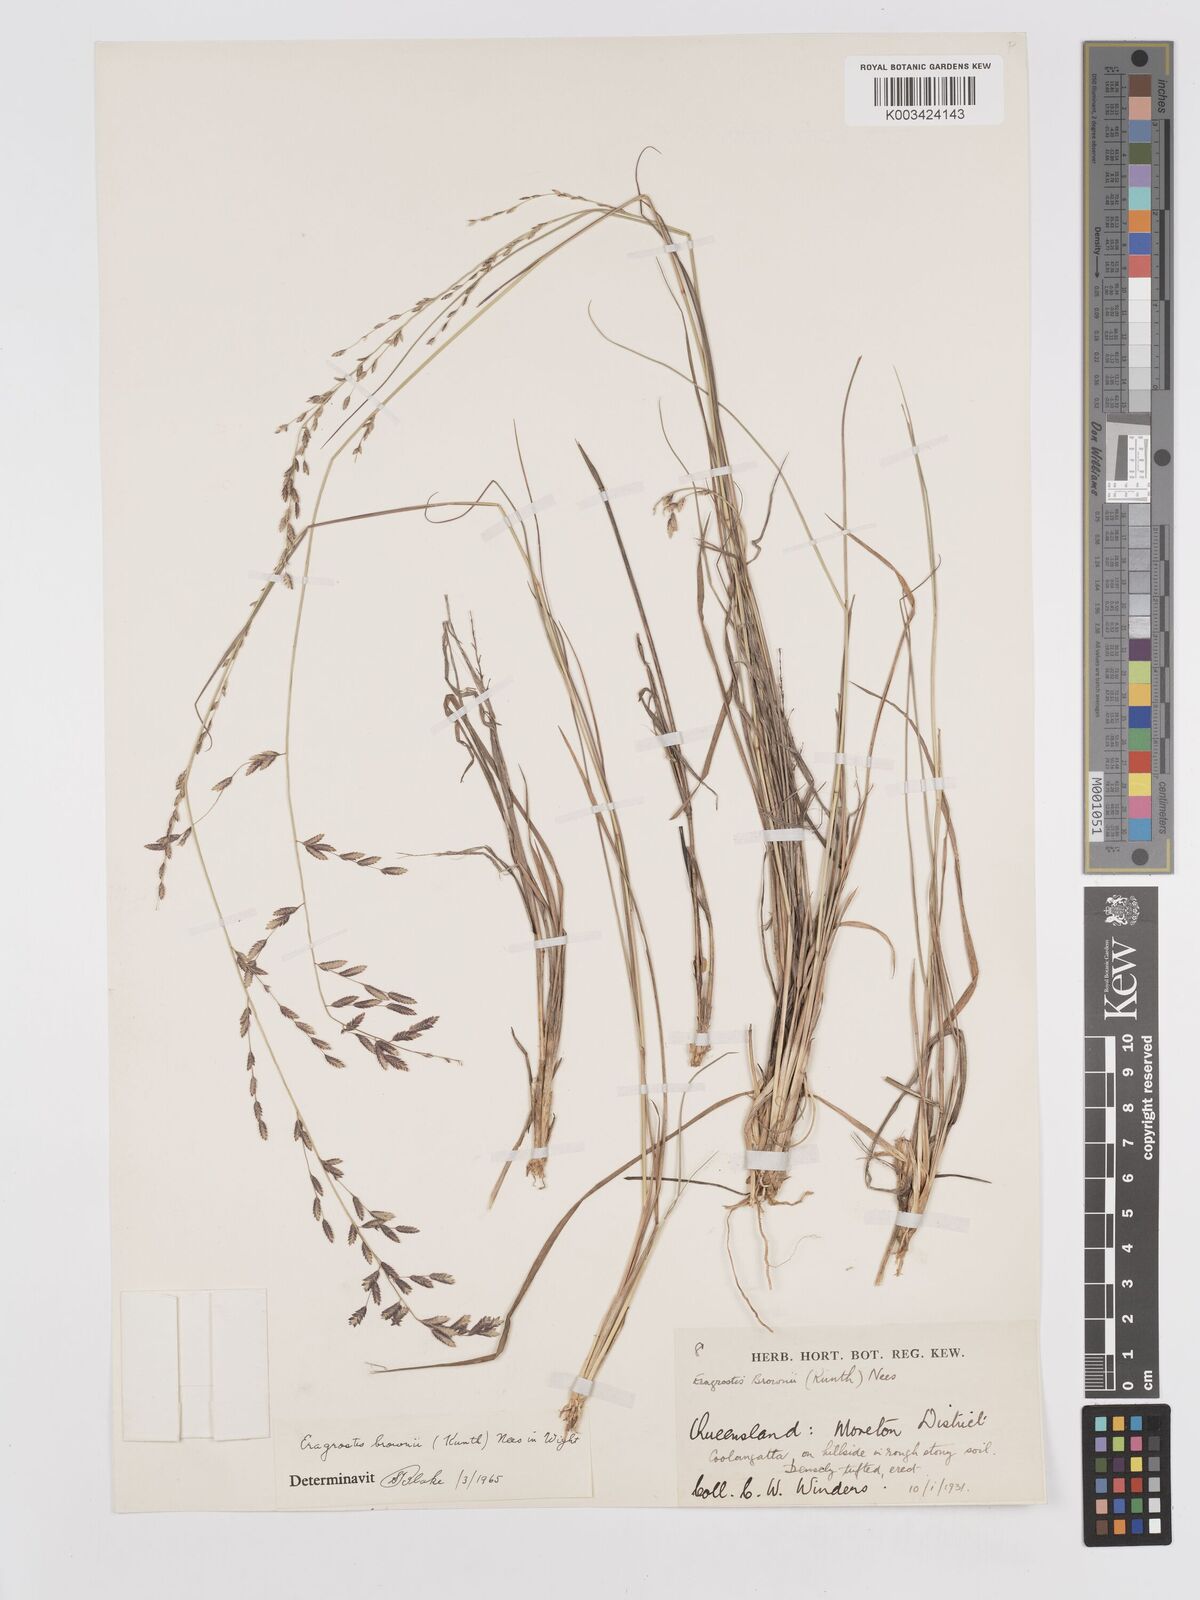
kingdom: Plantae
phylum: Tracheophyta
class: Liliopsida
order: Poales
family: Poaceae
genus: Eragrostis
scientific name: Eragrostis brownii
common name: Lovegrass
